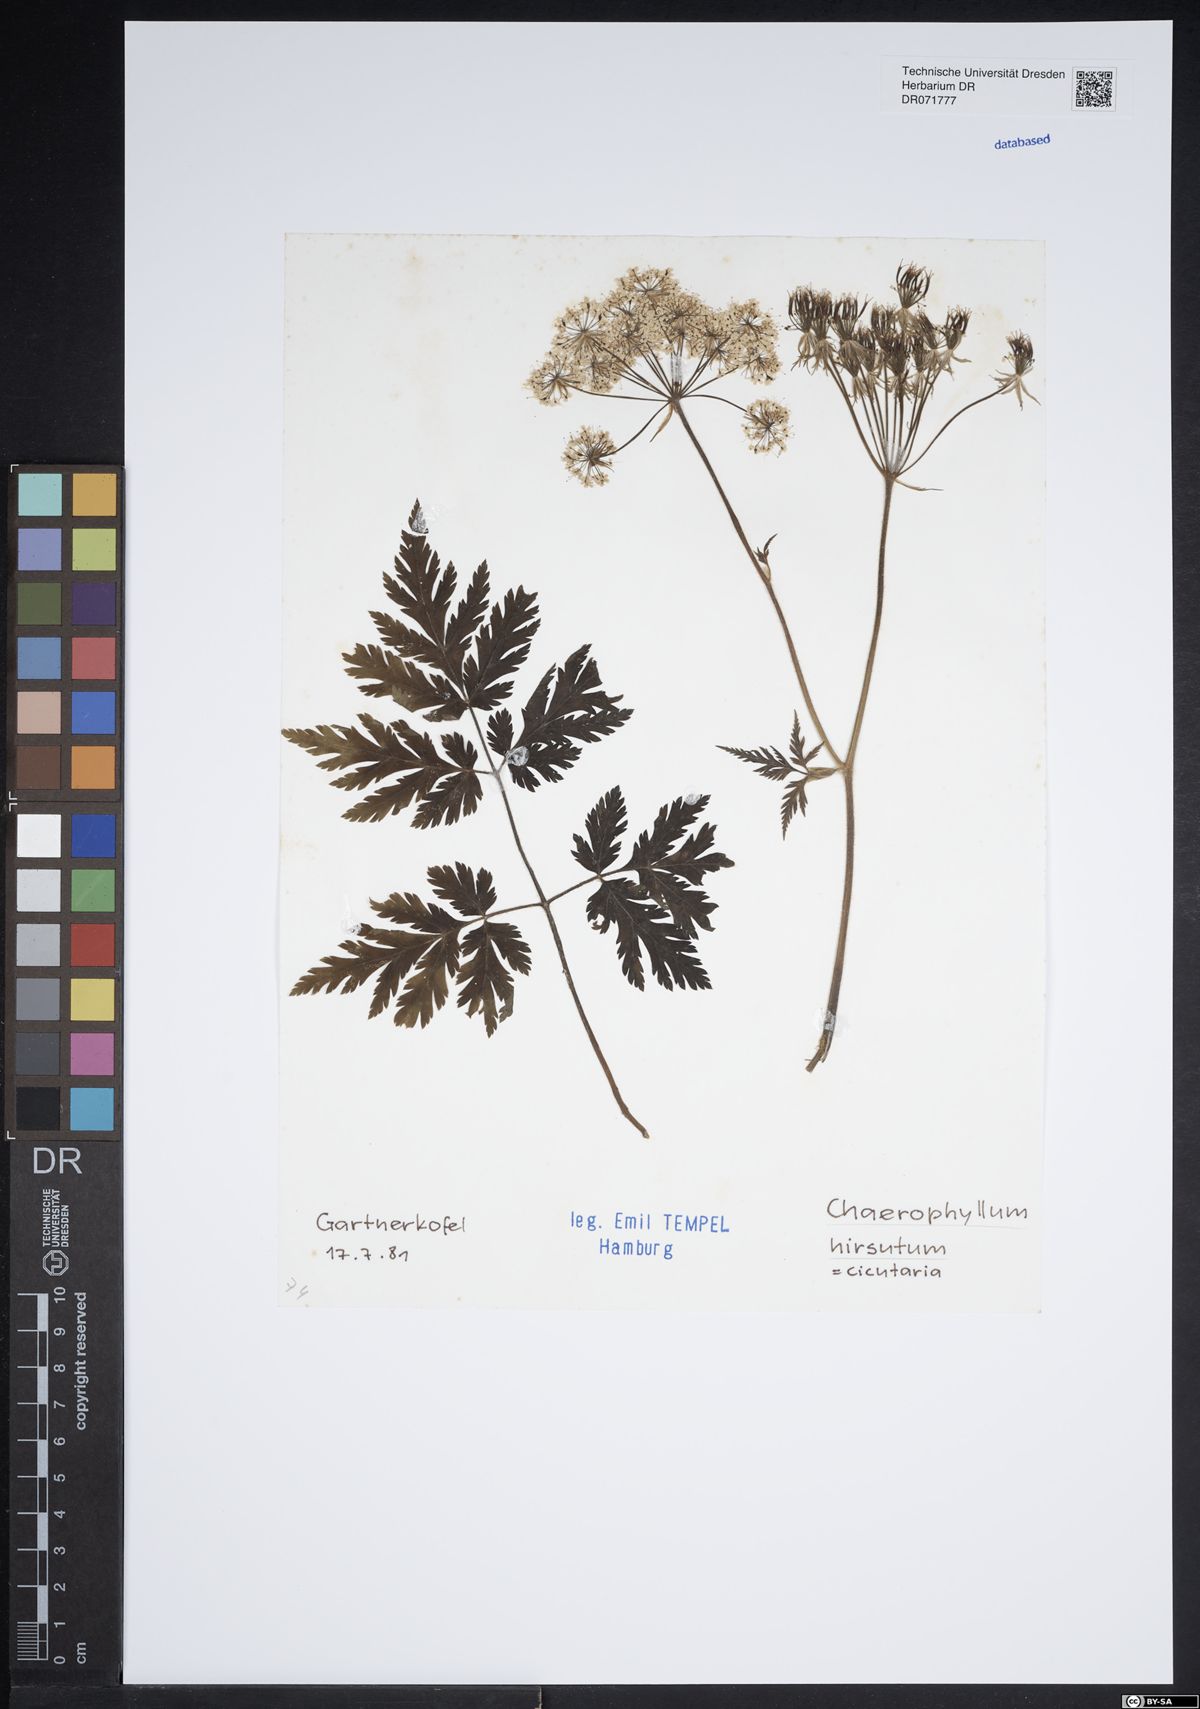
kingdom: Plantae
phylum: Tracheophyta
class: Magnoliopsida
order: Apiales
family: Apiaceae
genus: Chaerophyllum
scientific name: Chaerophyllum hirsutum
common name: Hairy chervil
